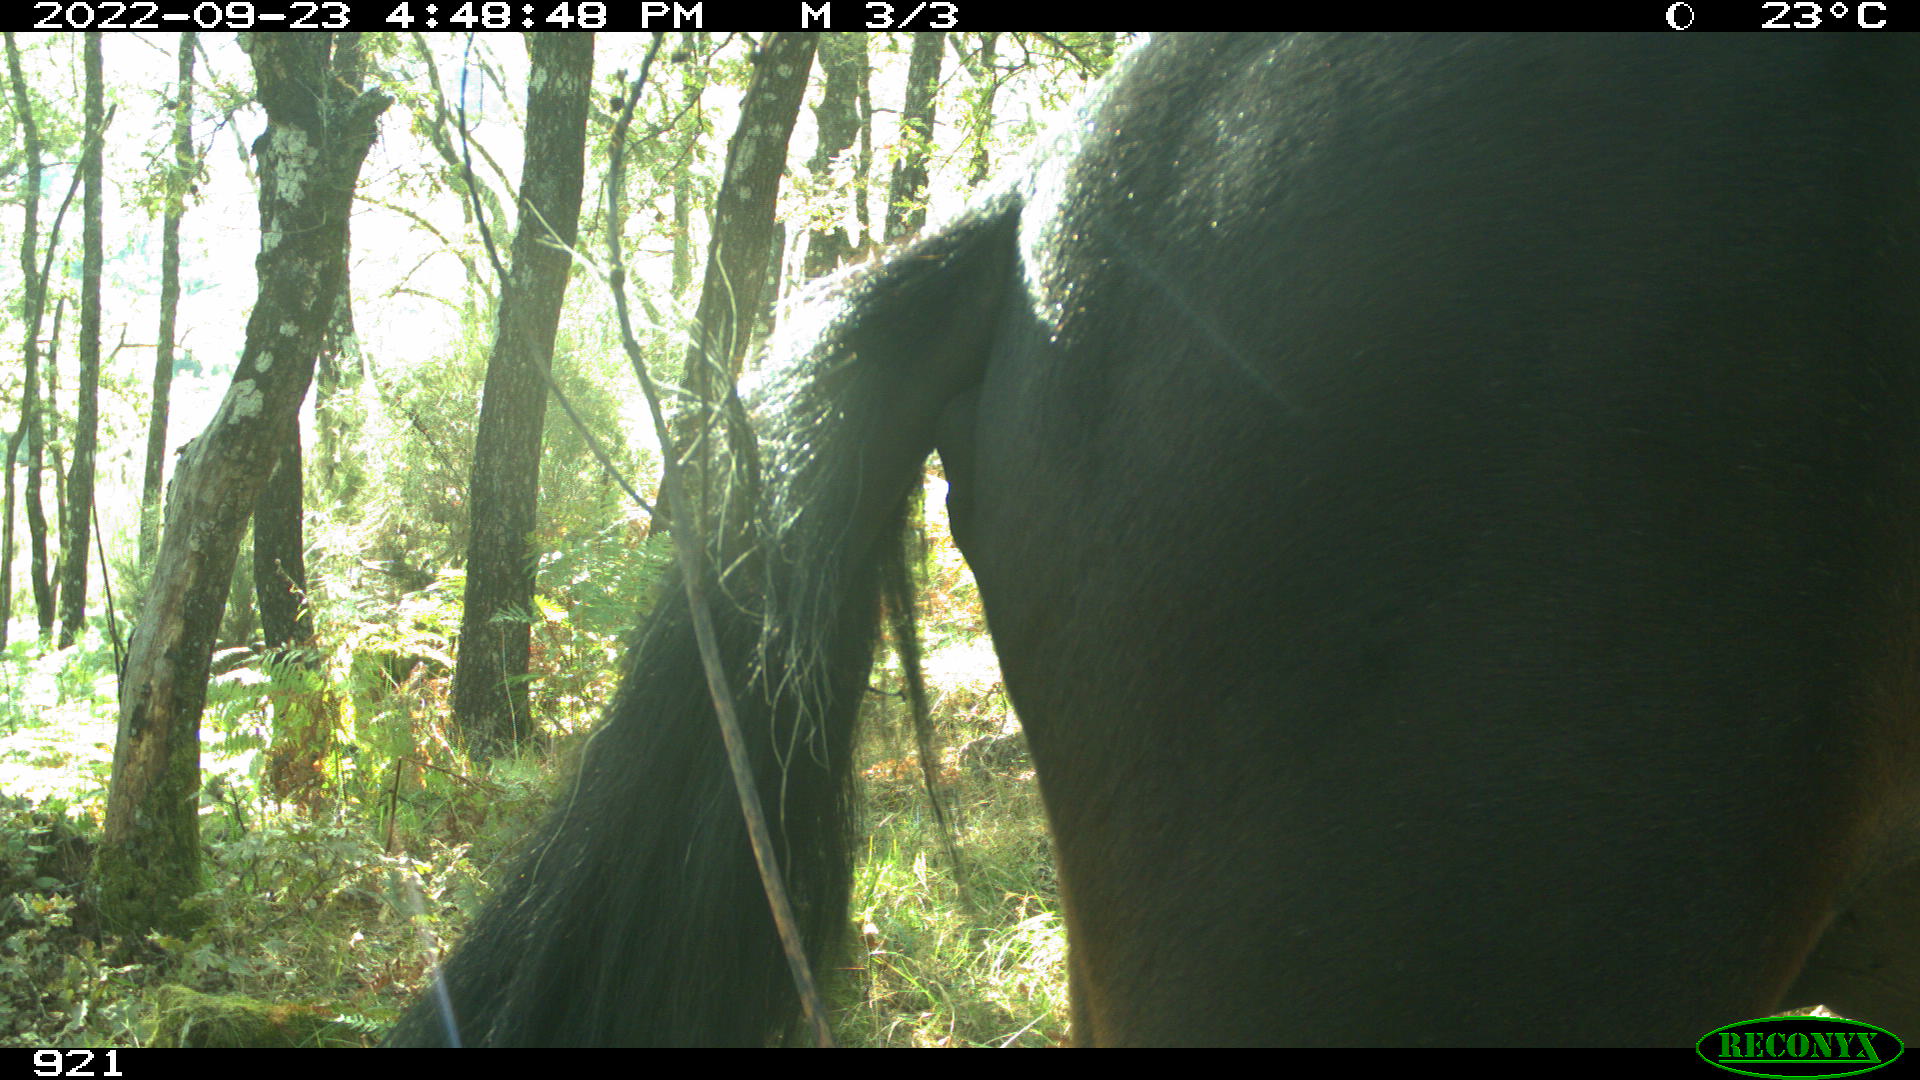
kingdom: Animalia
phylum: Chordata
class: Mammalia
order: Perissodactyla
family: Equidae
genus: Equus
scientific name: Equus caballus
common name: Horse
